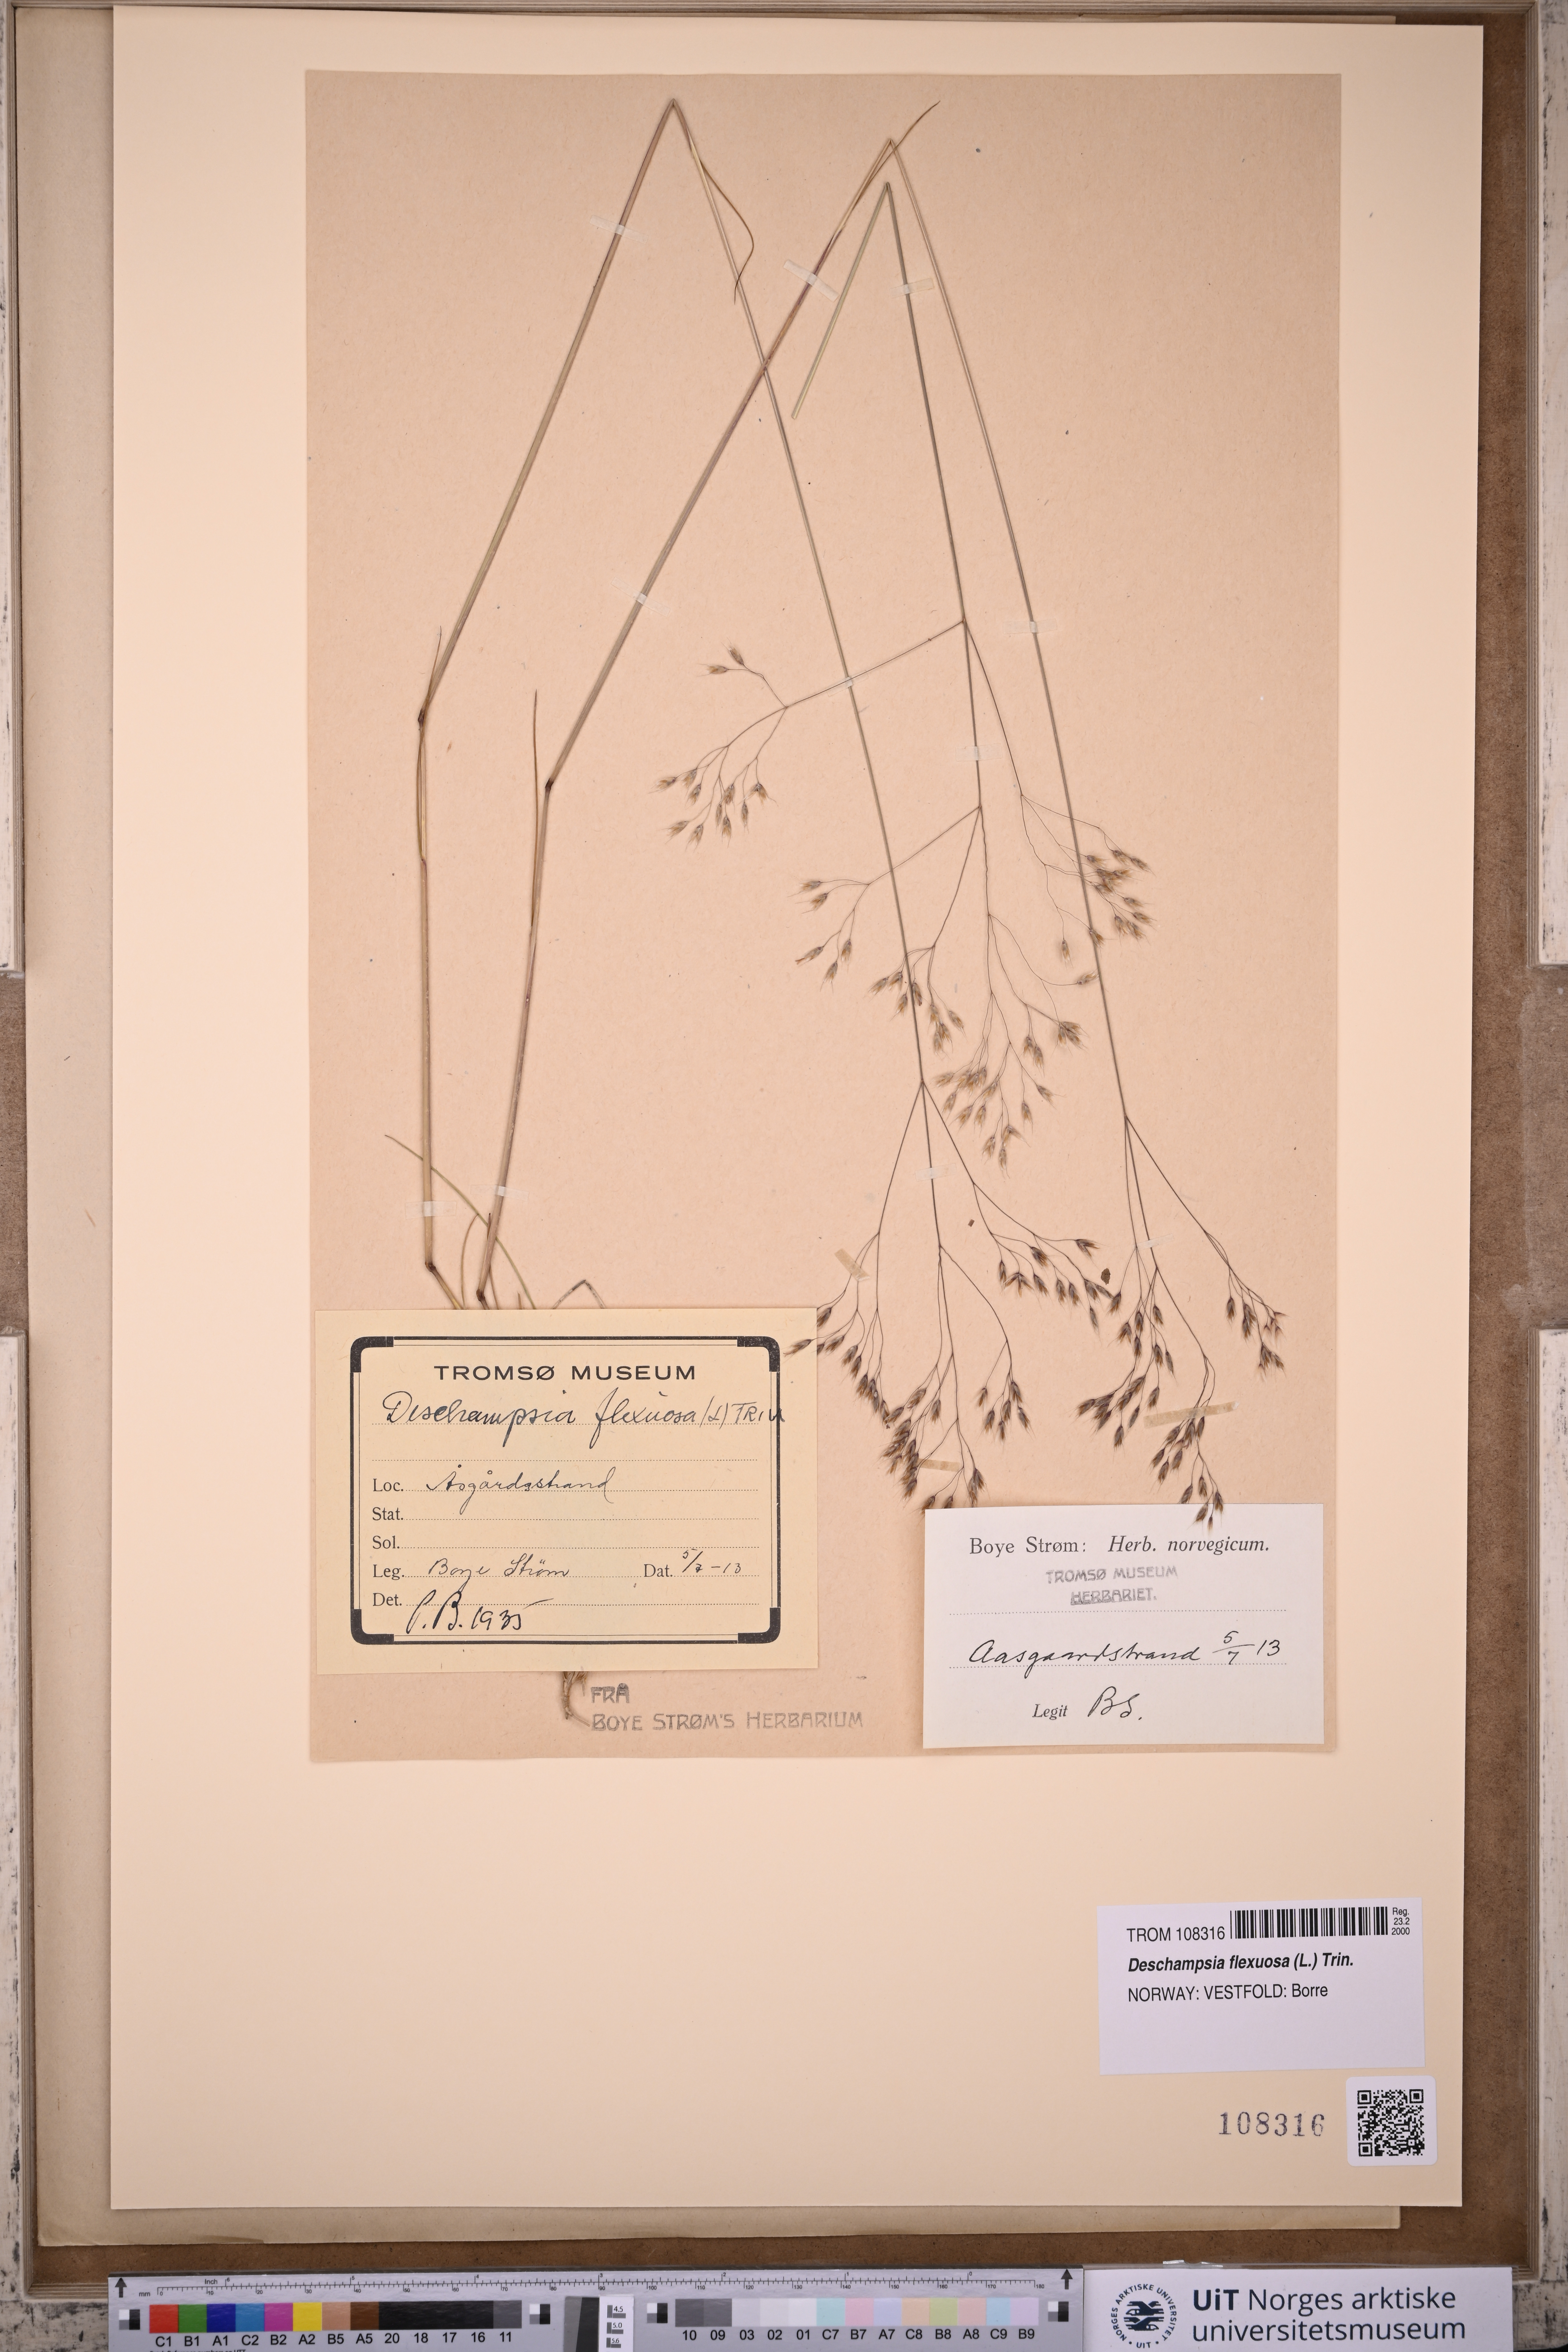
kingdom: Plantae
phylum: Tracheophyta
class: Liliopsida
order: Poales
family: Poaceae
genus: Avenella
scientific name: Avenella flexuosa
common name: Wavy hairgrass
